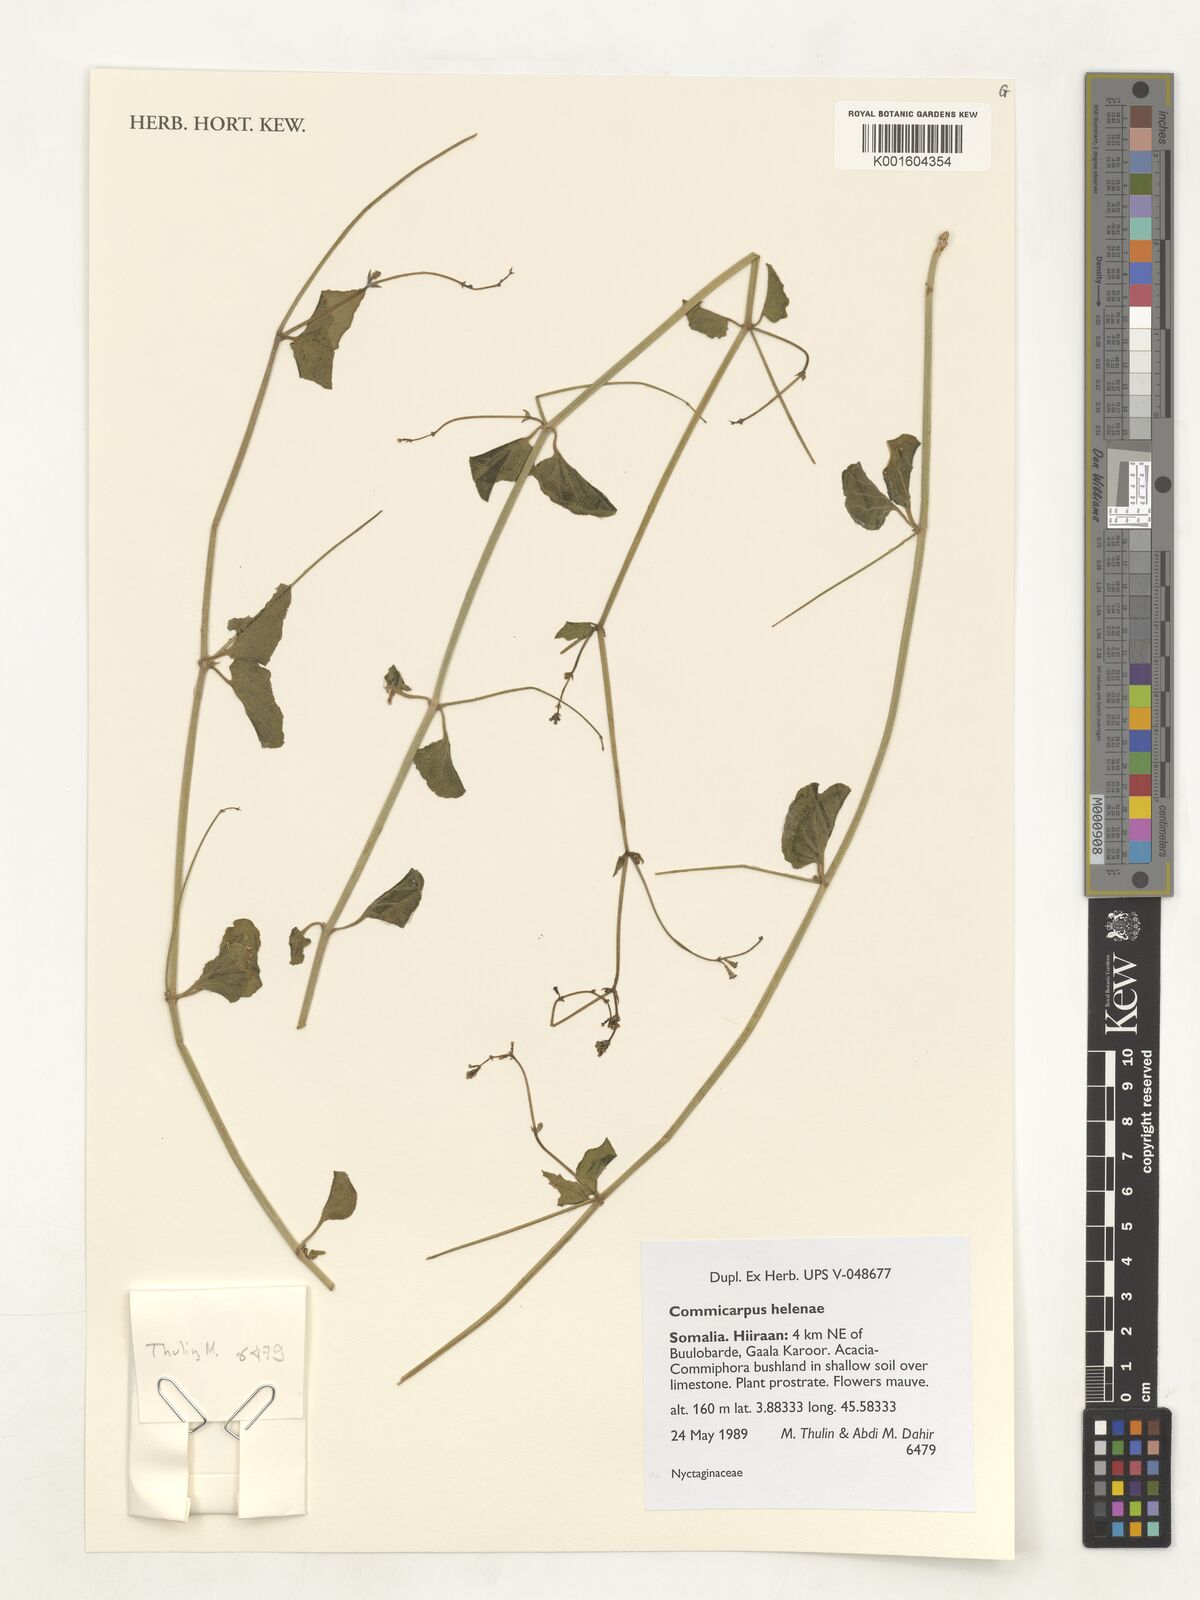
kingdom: Plantae
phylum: Tracheophyta
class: Magnoliopsida
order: Caryophyllales
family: Nyctaginaceae
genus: Commicarpus
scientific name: Commicarpus helenae
